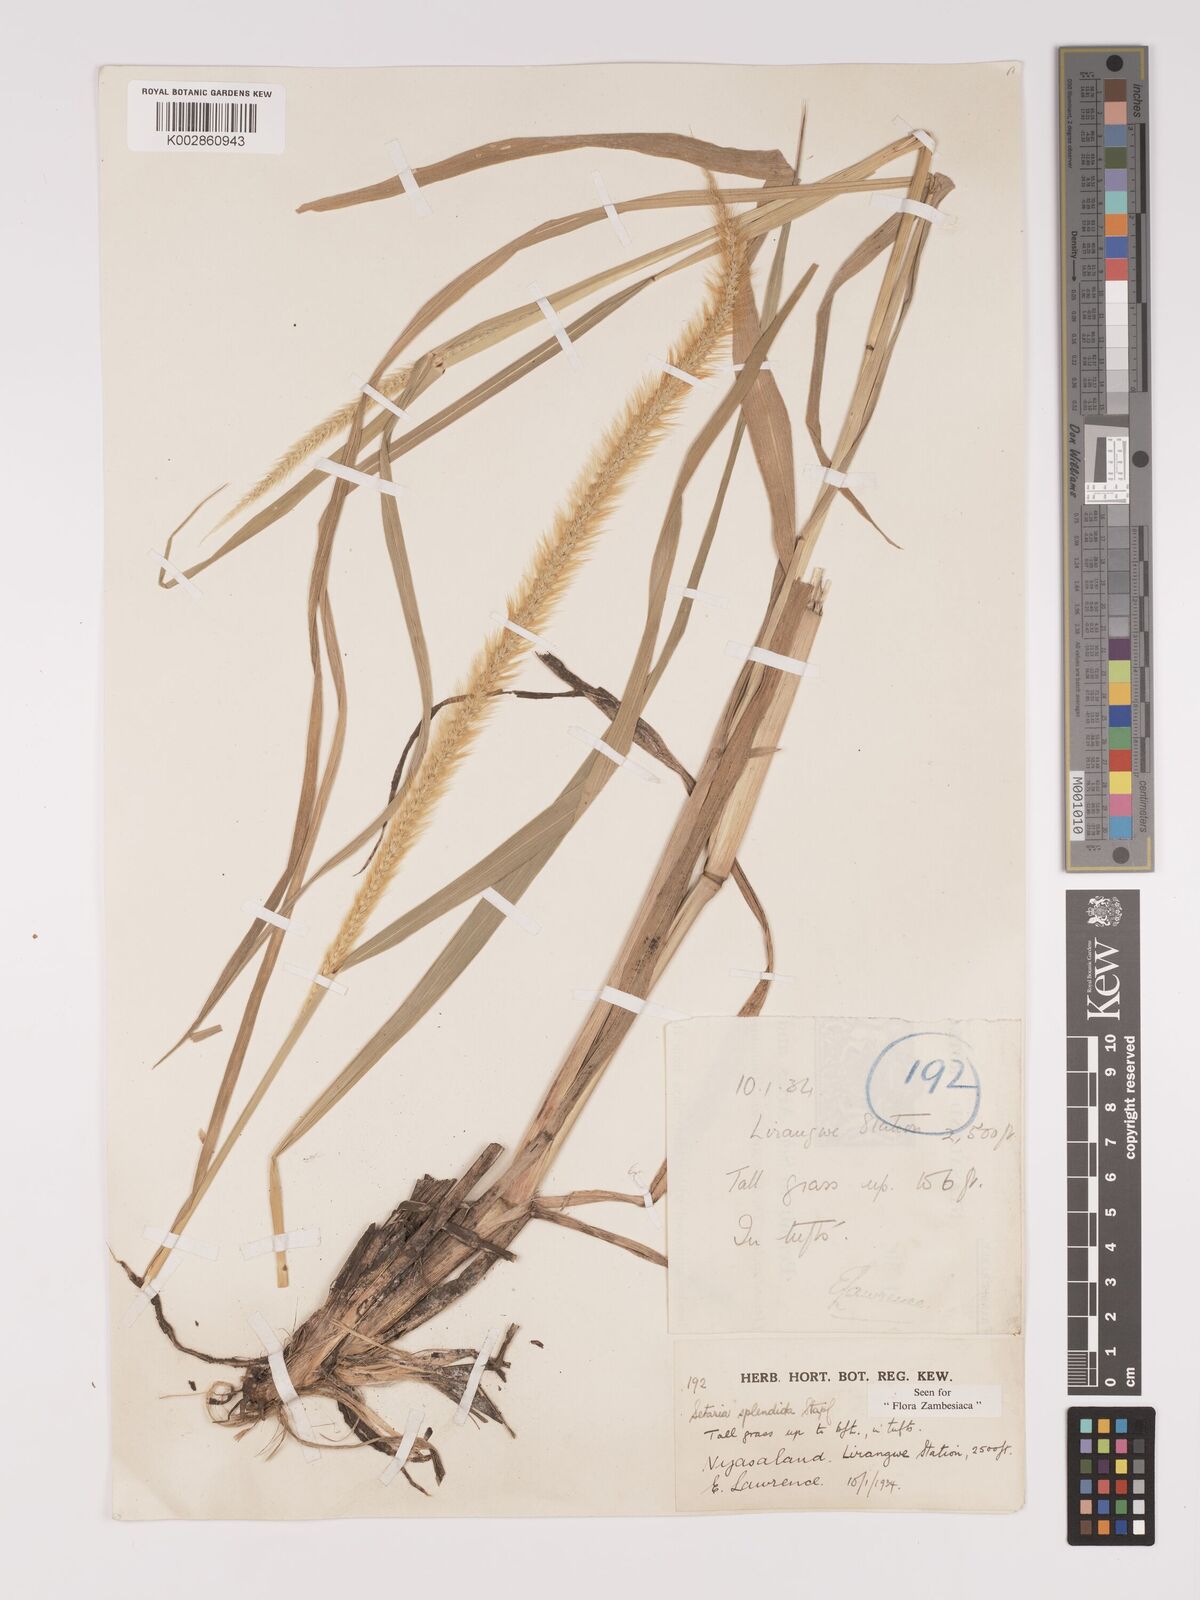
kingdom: Plantae
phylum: Tracheophyta
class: Liliopsida
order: Poales
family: Poaceae
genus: Setaria
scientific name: Setaria sphacelata
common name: African bristlegrass
